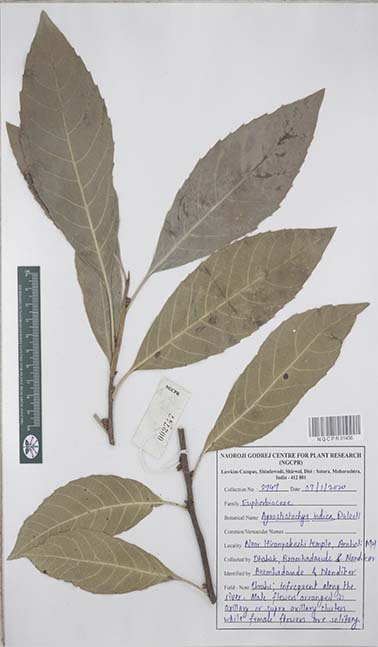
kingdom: Plantae
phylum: Tracheophyta
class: Magnoliopsida
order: Malpighiales
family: Euphorbiaceae
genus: Agrostistachys
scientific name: Agrostistachys indica
